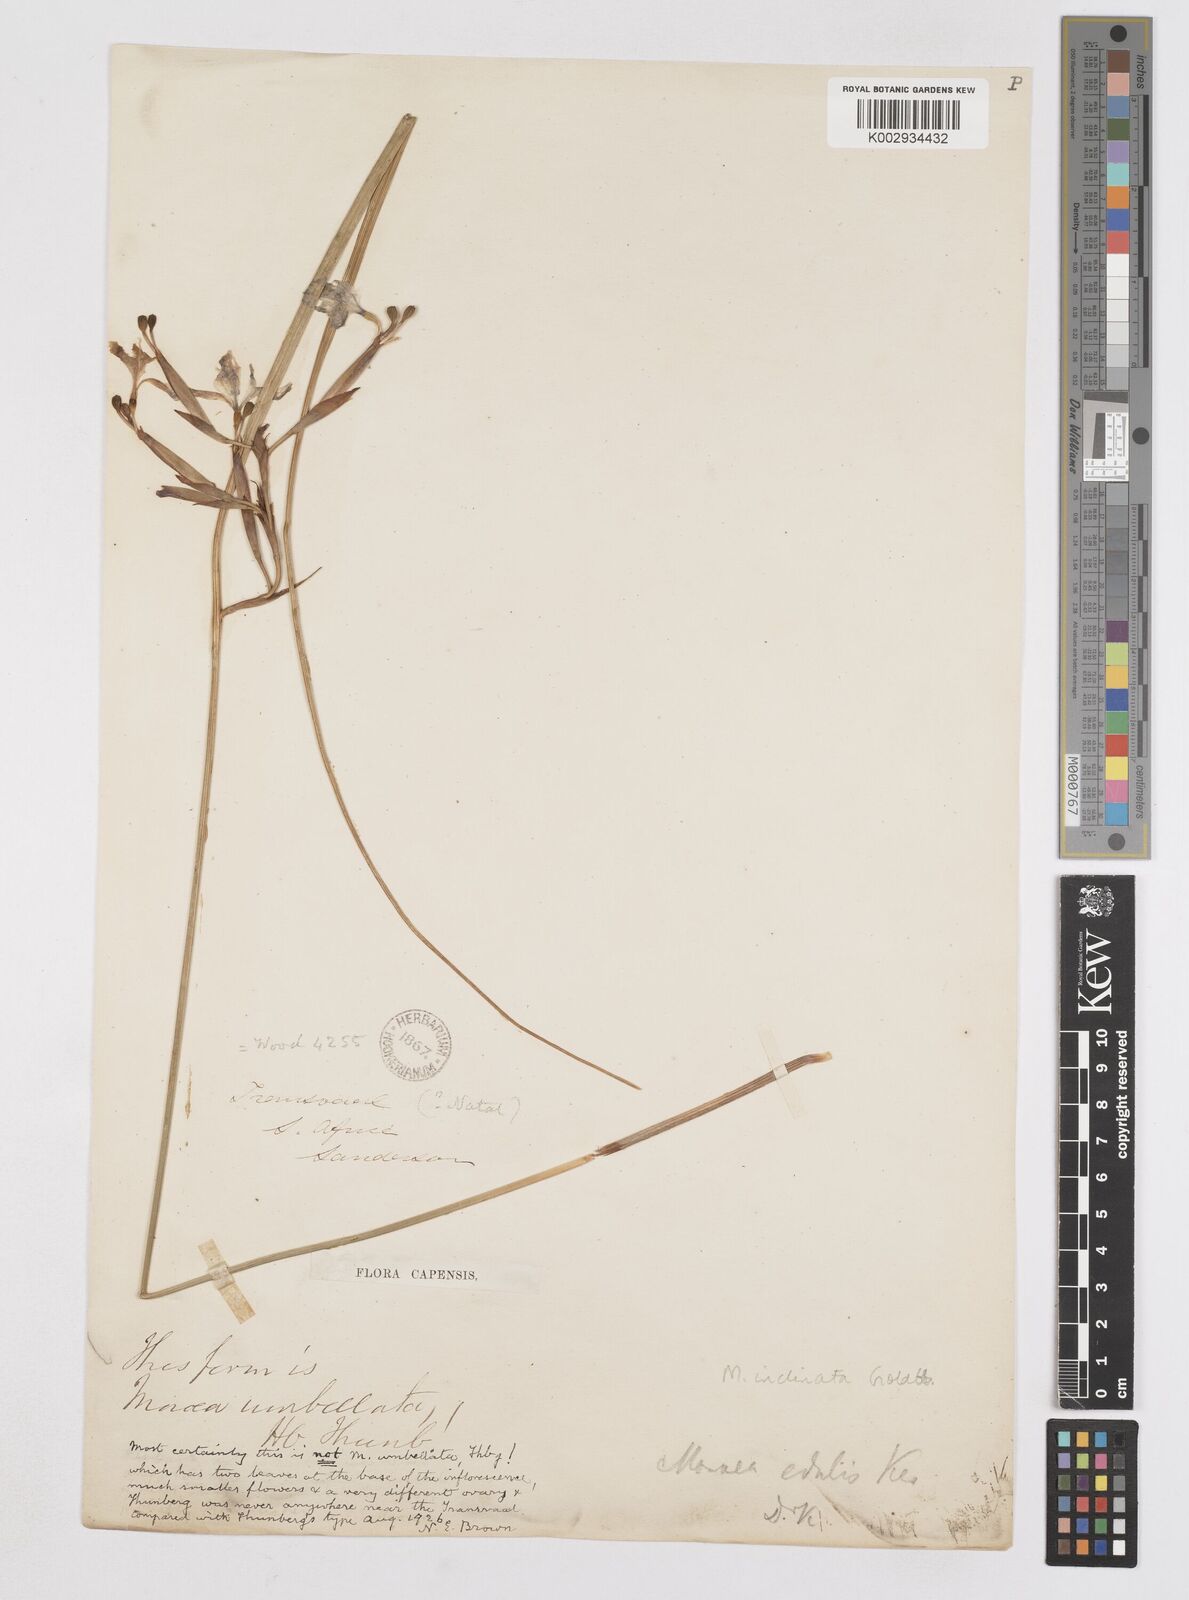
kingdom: Plantae
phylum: Tracheophyta
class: Liliopsida
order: Asparagales
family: Iridaceae
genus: Moraea
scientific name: Moraea inclinata
